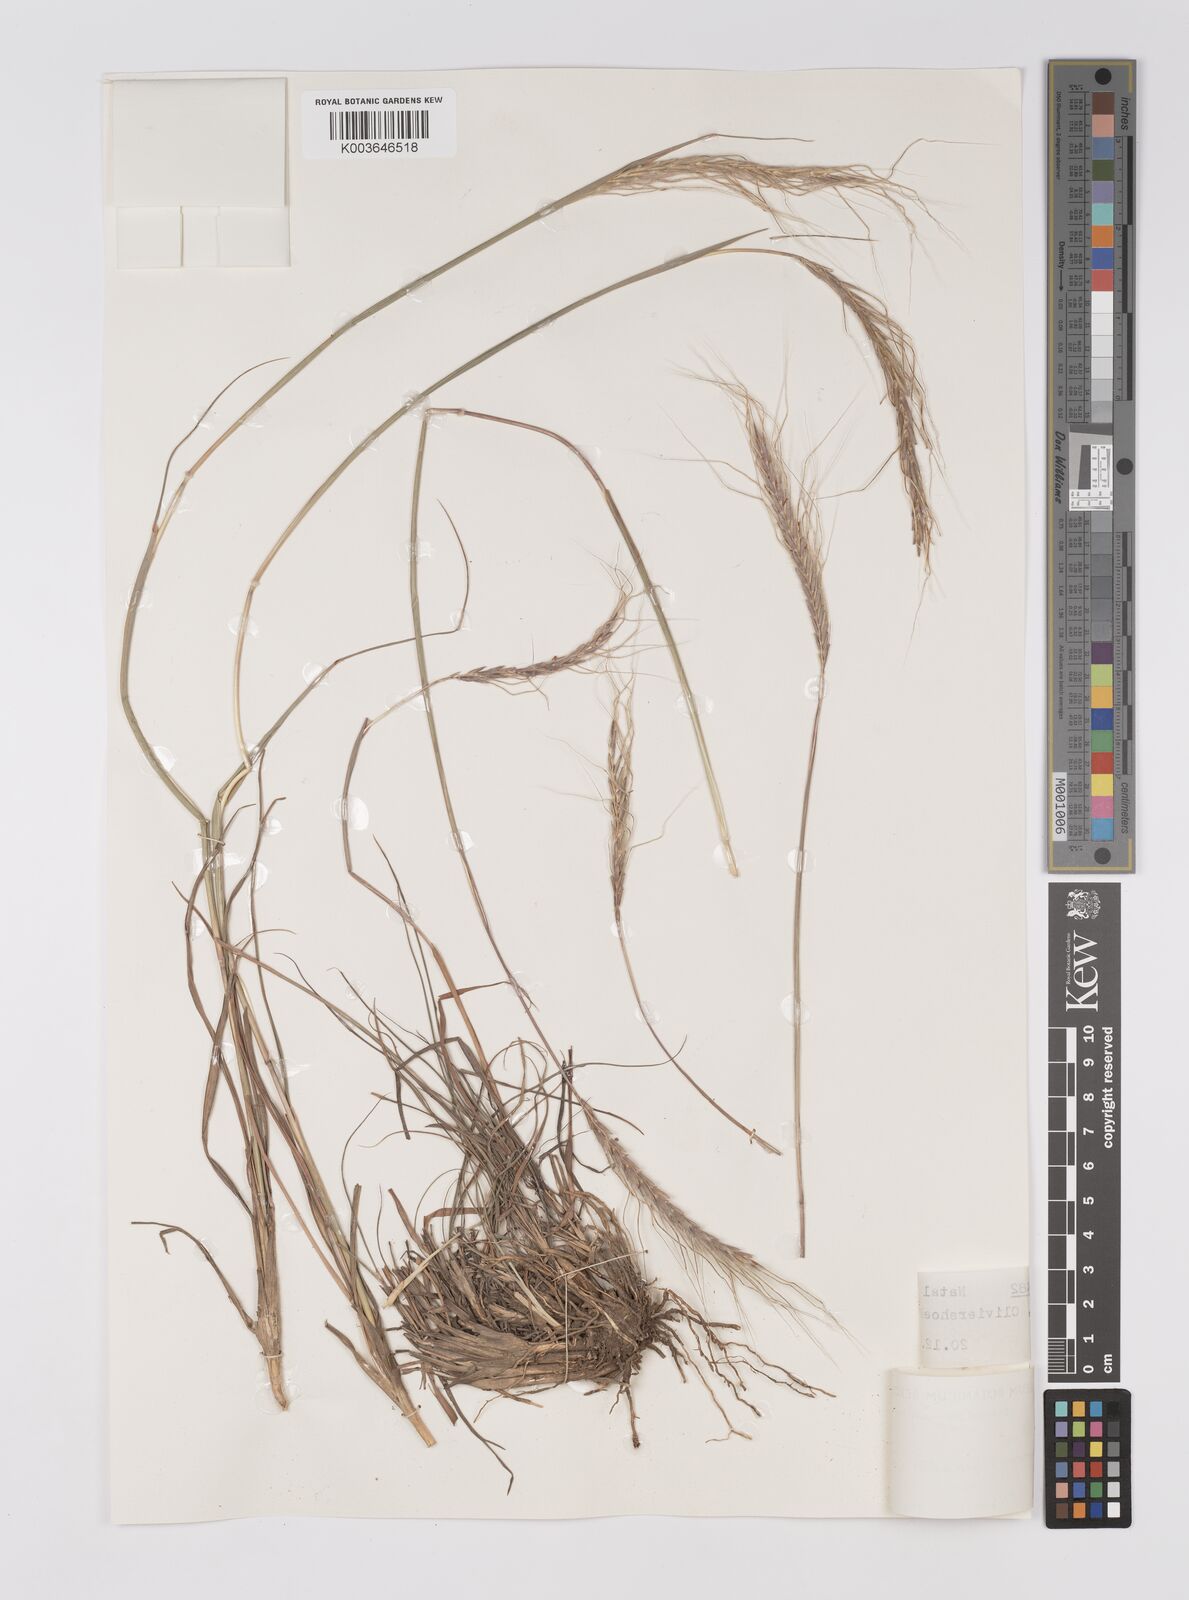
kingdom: Plantae
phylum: Tracheophyta
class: Liliopsida
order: Poales
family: Poaceae
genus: Trachypogon
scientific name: Trachypogon spicatus
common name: Crinkle-awn
